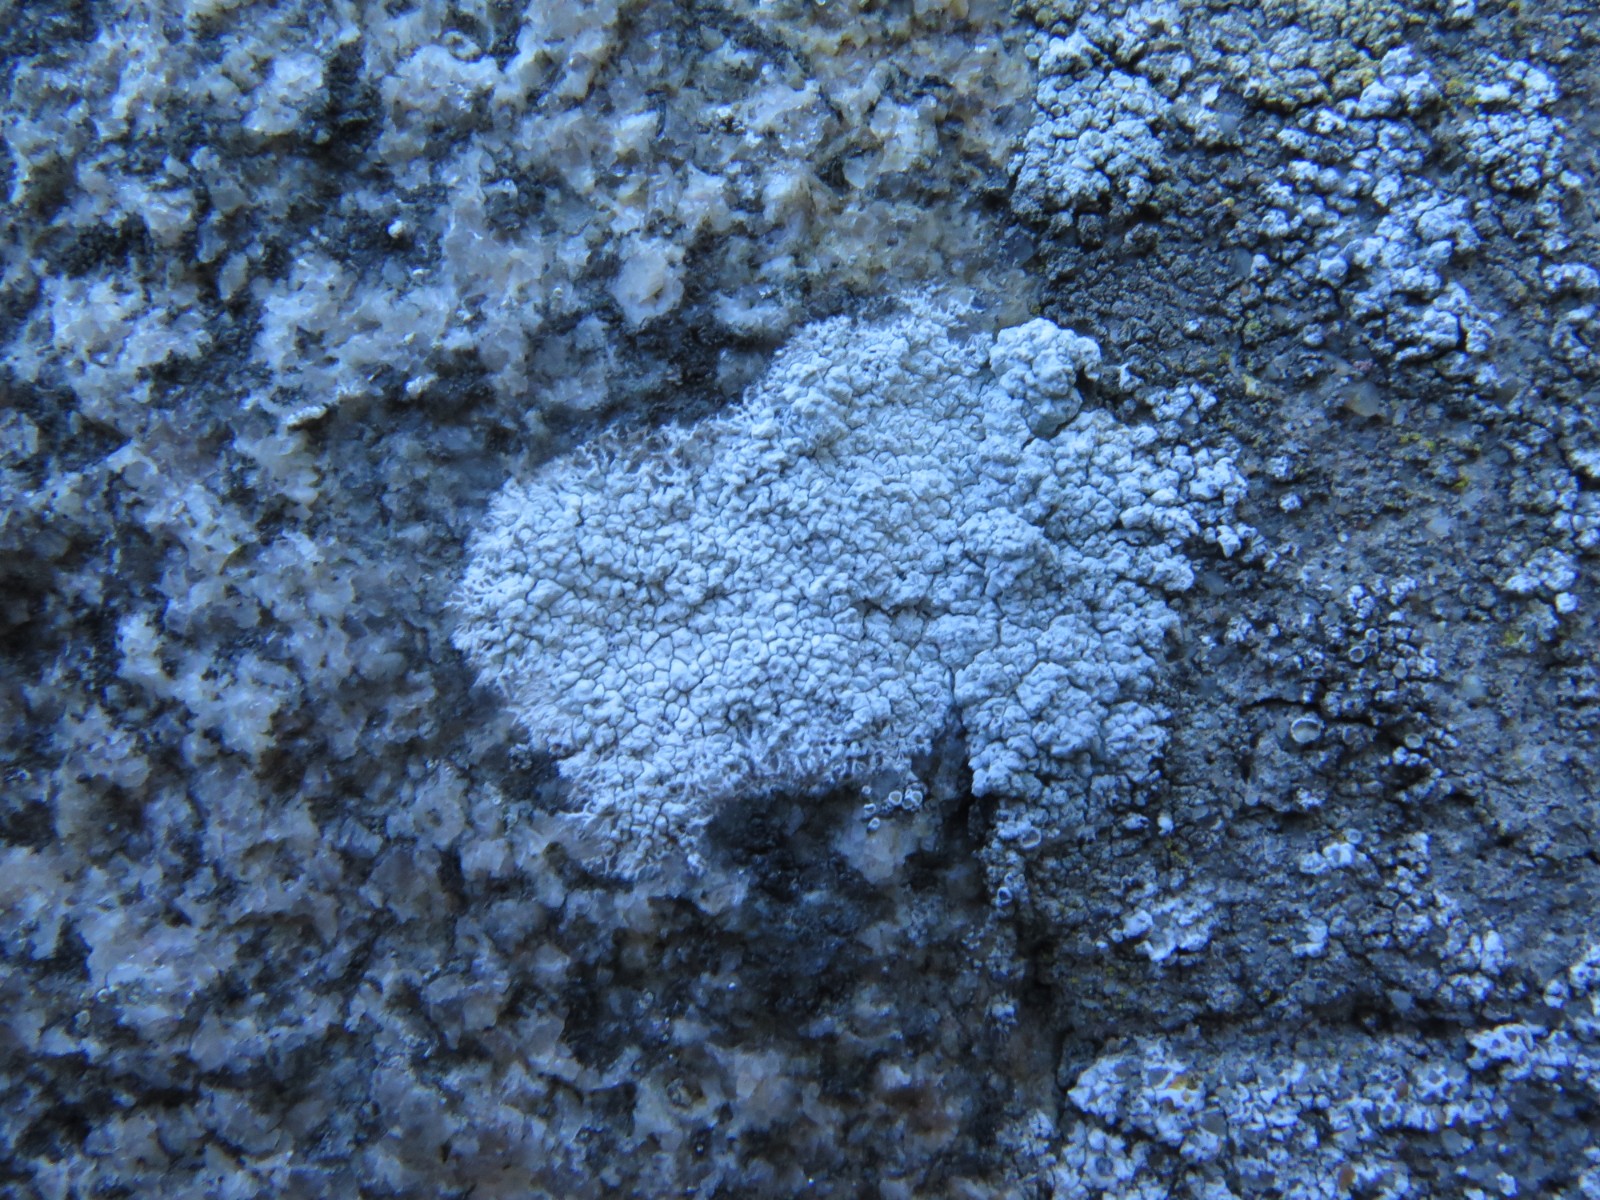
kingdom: Fungi
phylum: Ascomycota
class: Lecanoromycetes
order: Lecanorales
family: Lecanoraceae
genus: Polyozosia
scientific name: Polyozosia albescens
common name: cement-kantskivelav
